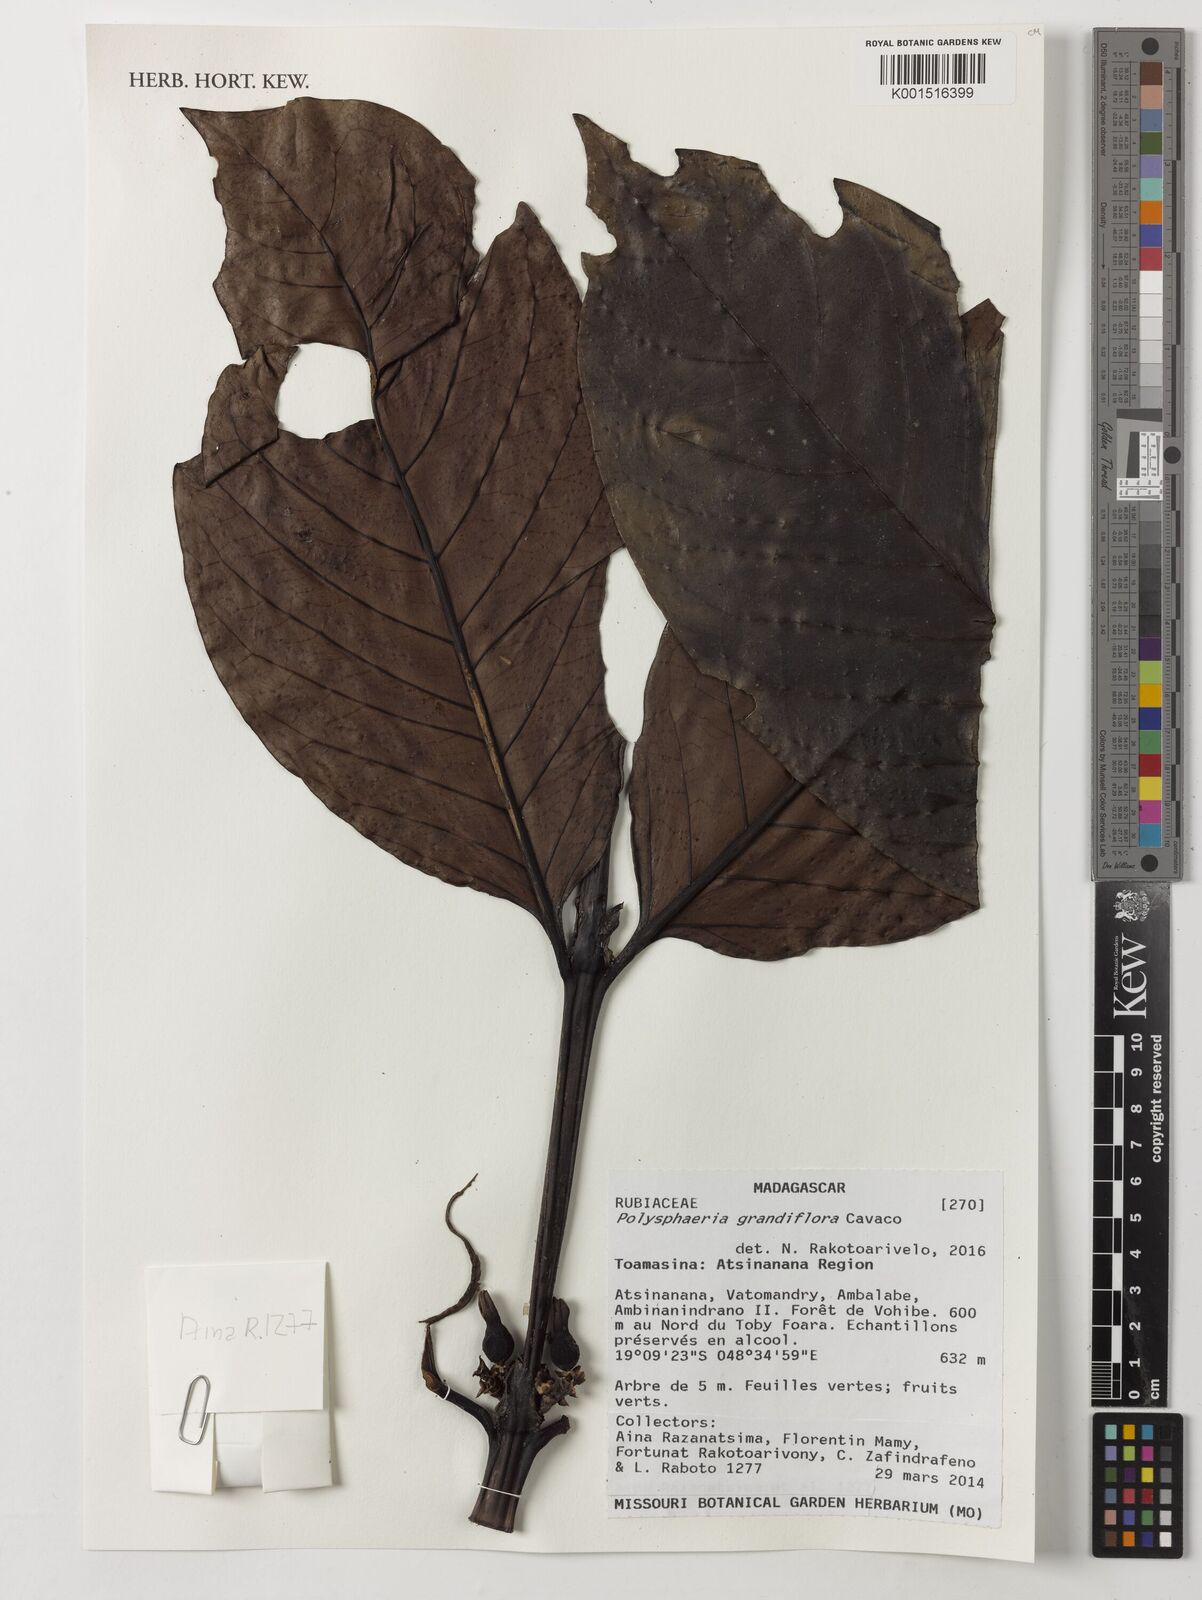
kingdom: Plantae
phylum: Tracheophyta
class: Magnoliopsida
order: Gentianales
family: Rubiaceae
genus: Polysphaeria
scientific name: Polysphaeria grandiflora
